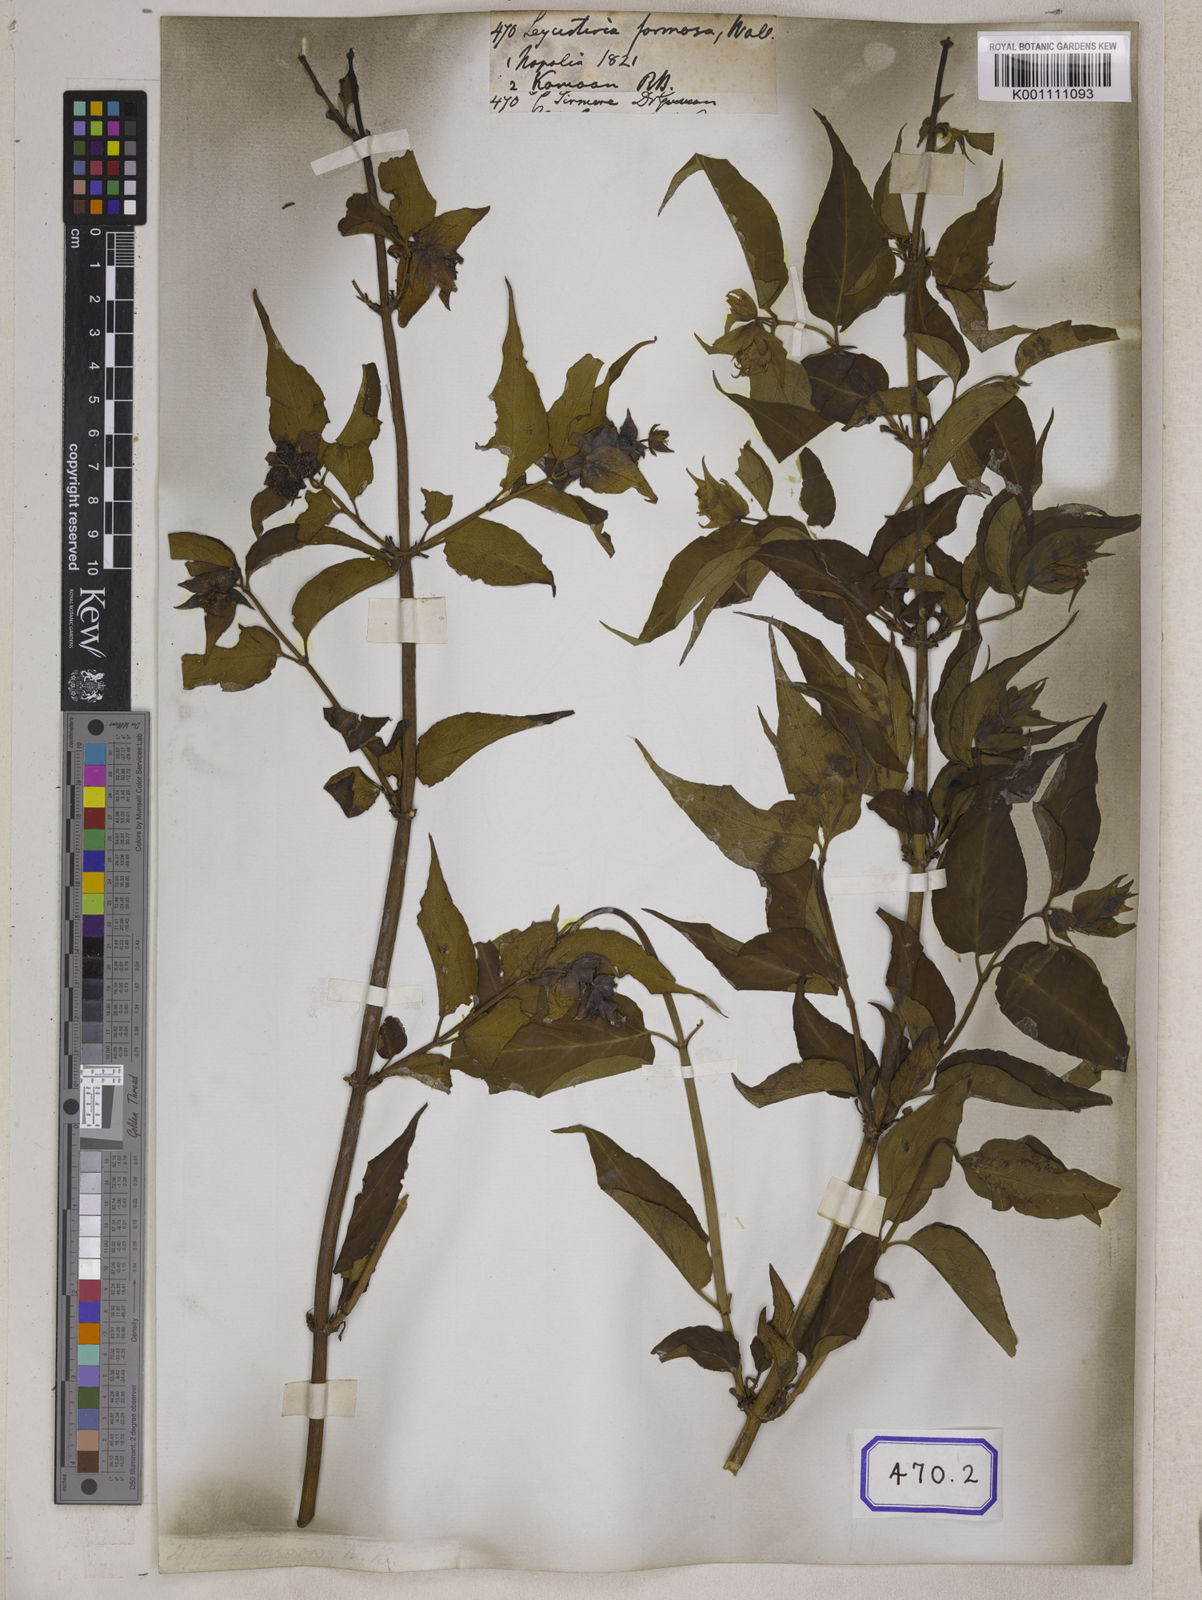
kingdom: Plantae
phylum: Tracheophyta
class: Magnoliopsida
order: Dipsacales
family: Caprifoliaceae
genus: Leycesteria
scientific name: Leycesteria formosa
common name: Himalayan honeysuckle
